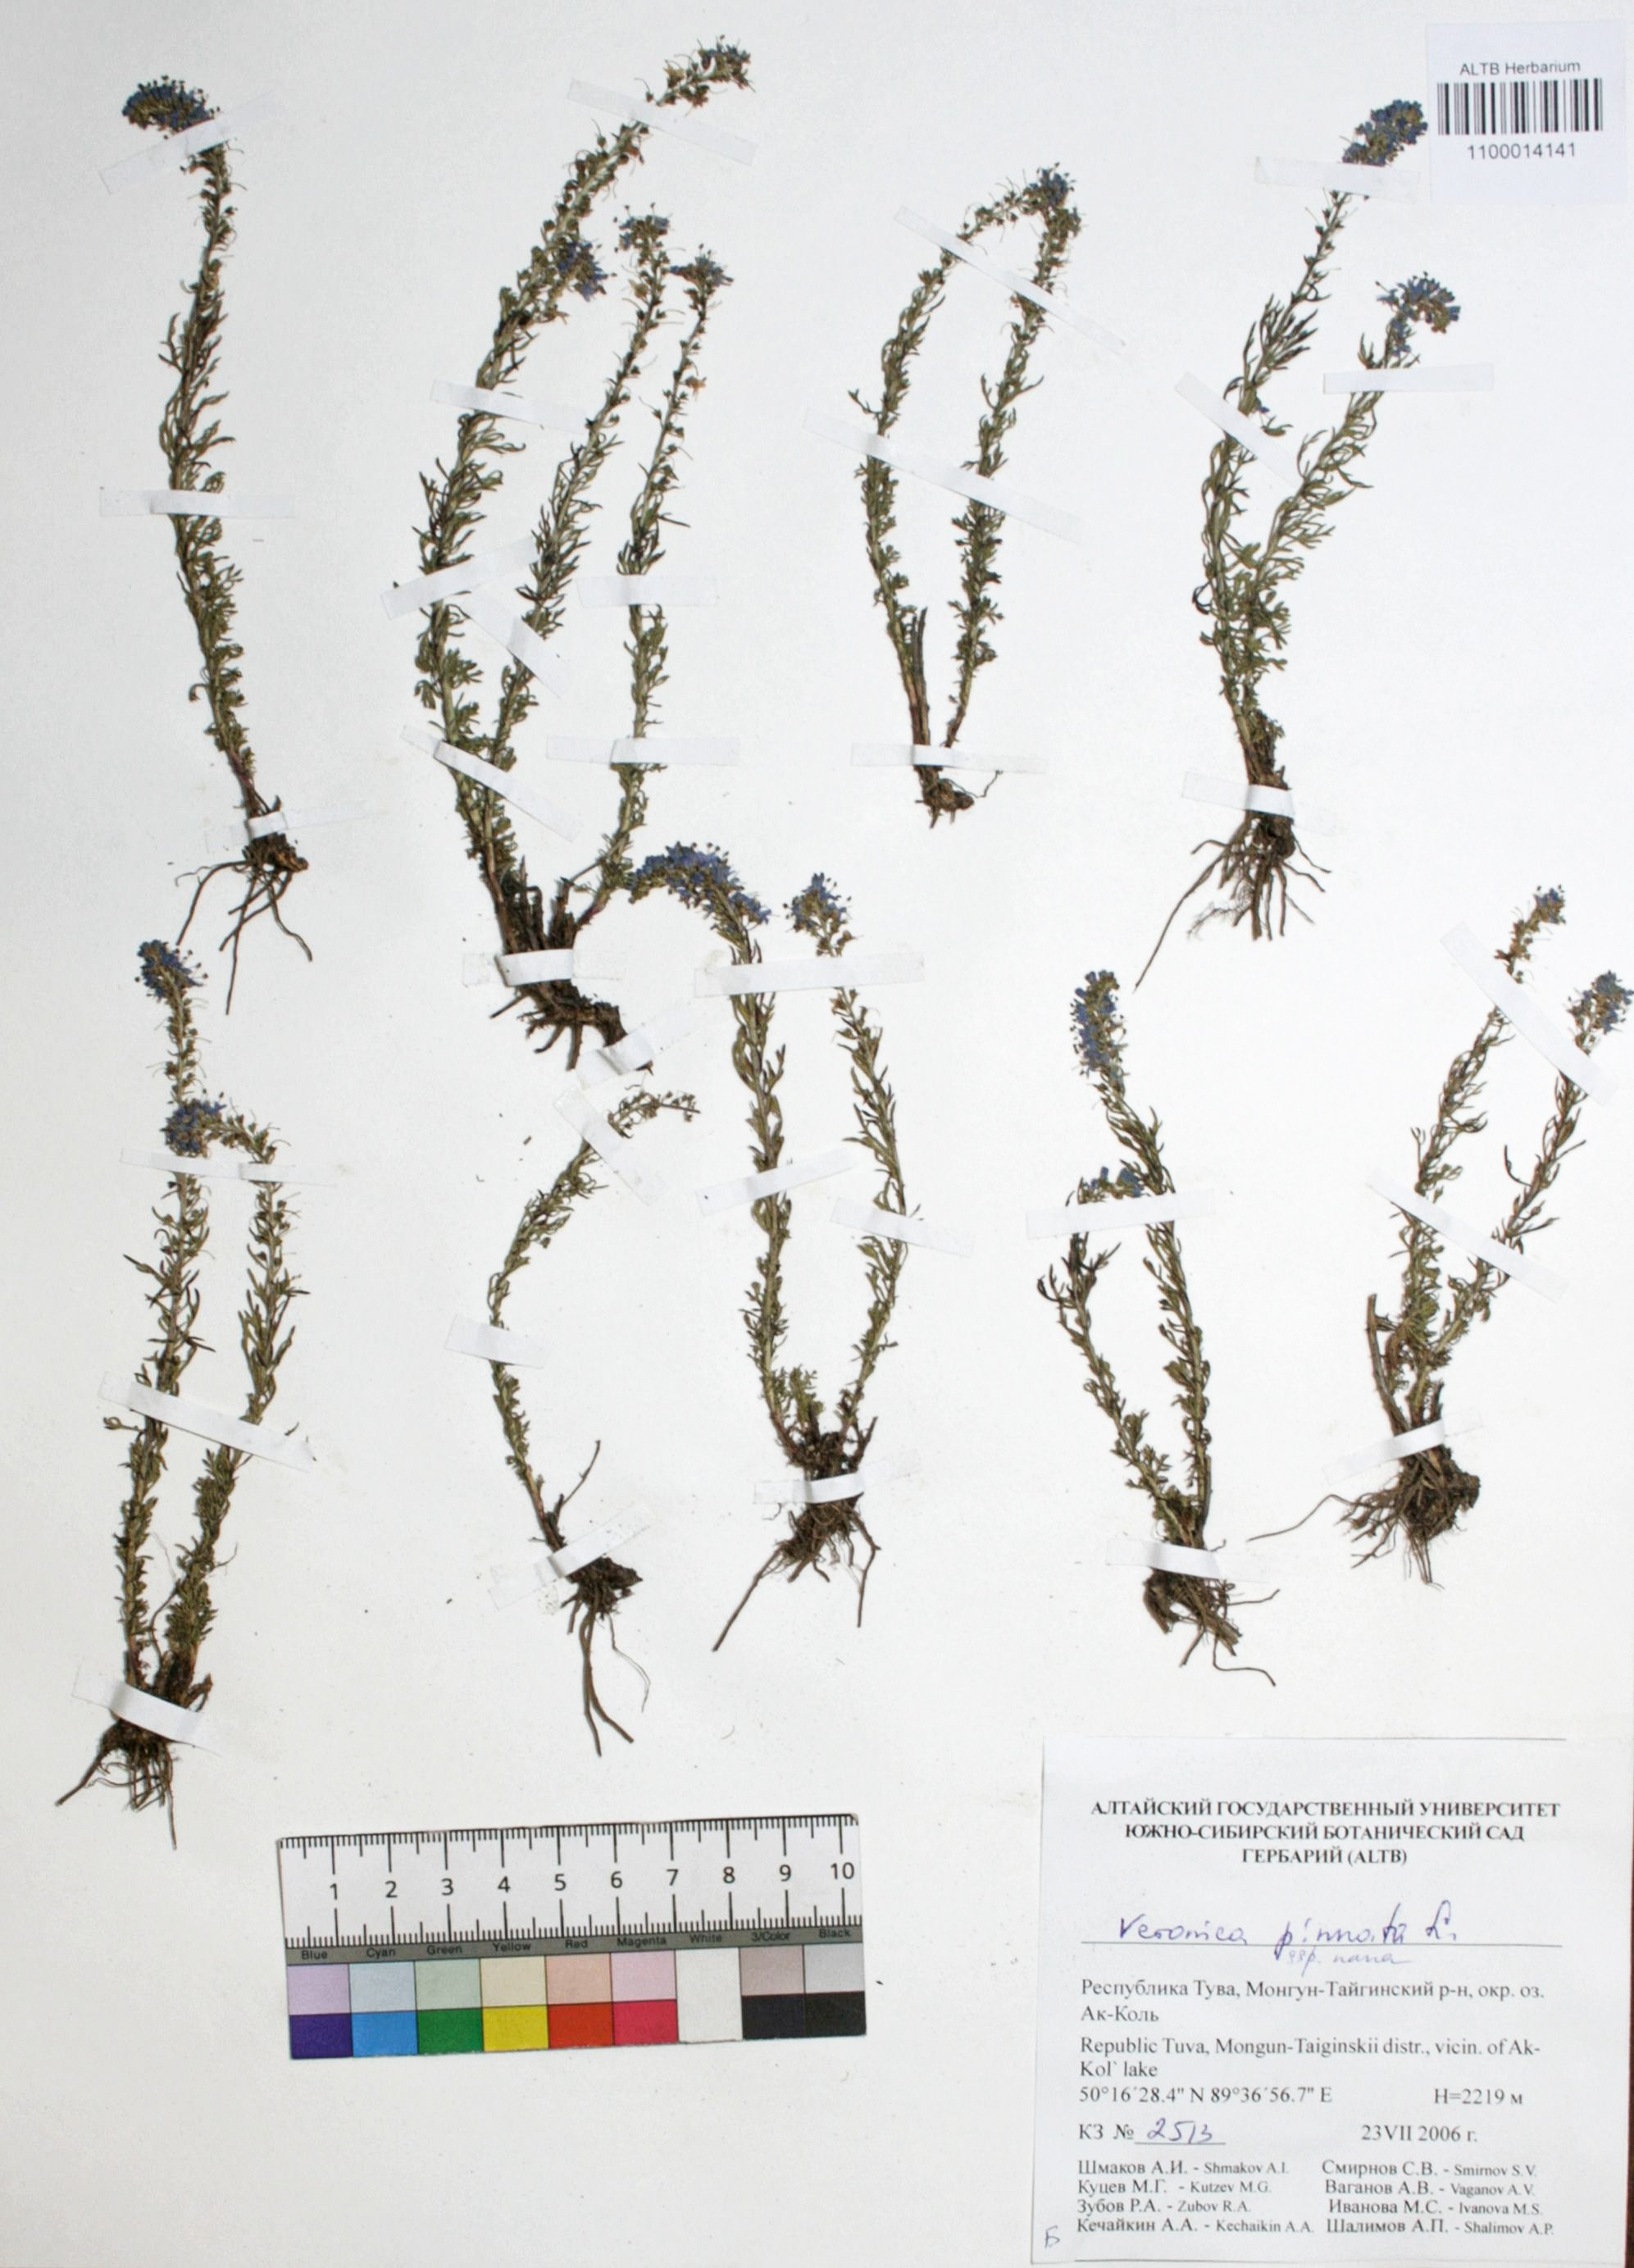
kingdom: Plantae
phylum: Tracheophyta
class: Magnoliopsida
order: Lamiales
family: Plantaginaceae
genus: Veronica
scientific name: Veronica pinnata
